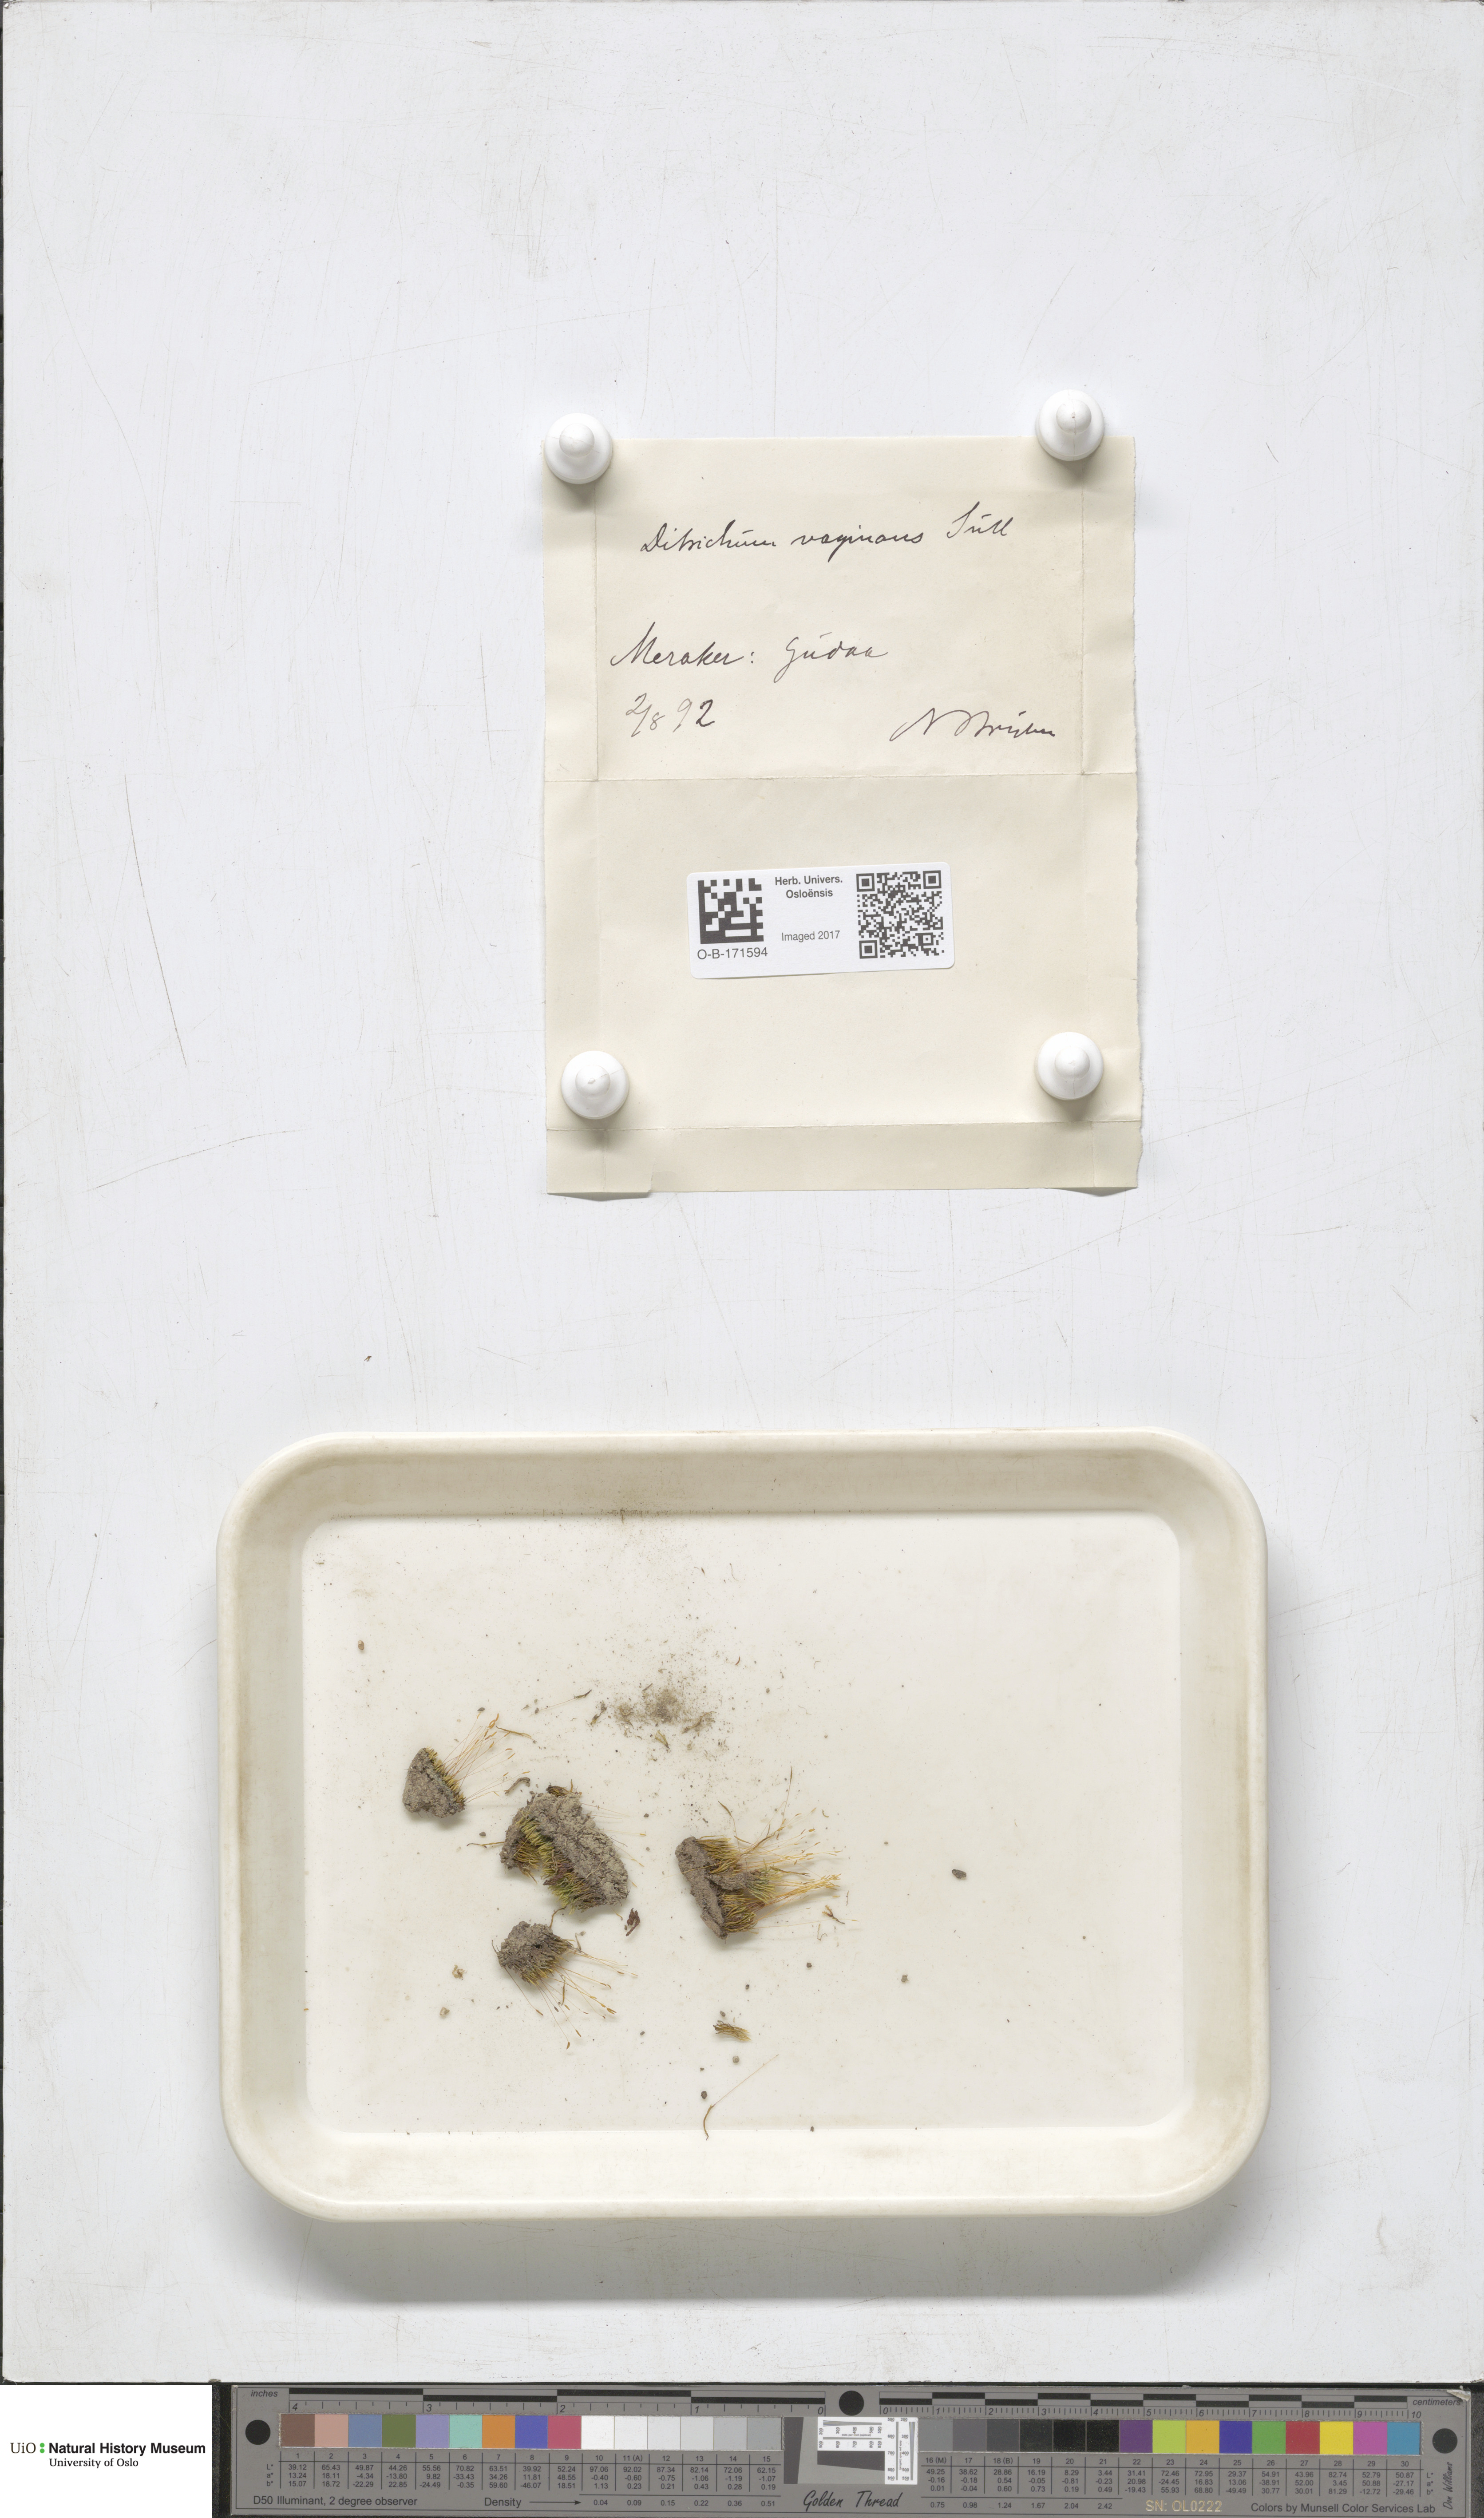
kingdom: Plantae
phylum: Bryophyta
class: Bryopsida
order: Dicranales
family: Ditrichaceae
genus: Ditrichum
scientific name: Ditrichum lineare
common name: Dark cow-hair moss
